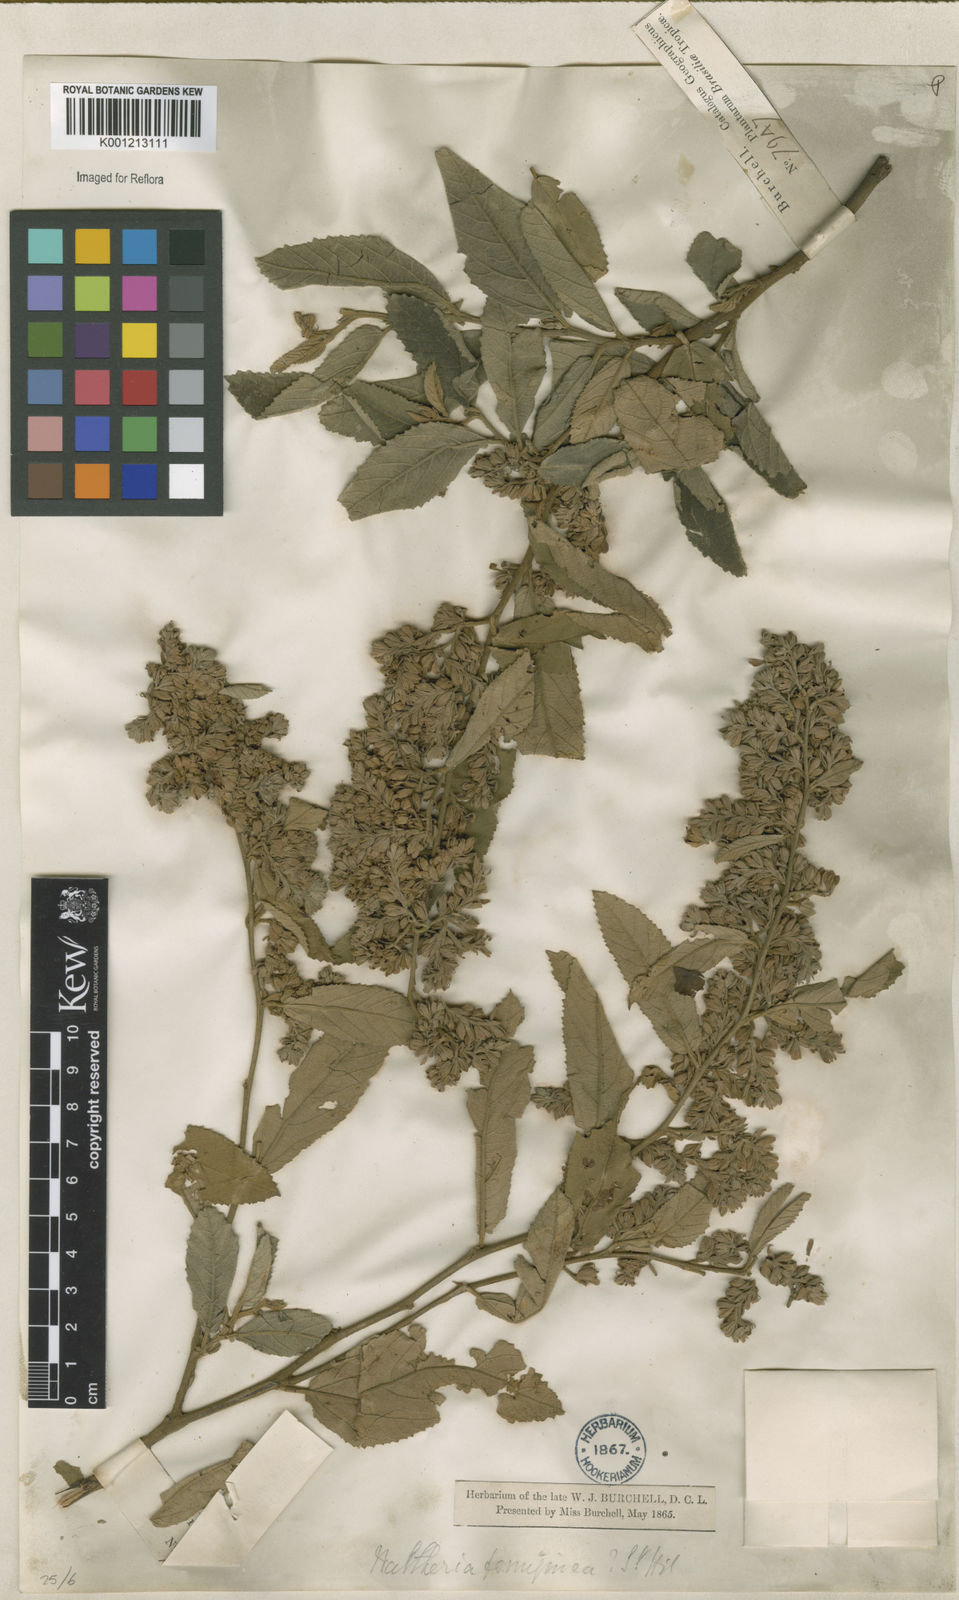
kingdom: Plantae
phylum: Tracheophyta
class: Magnoliopsida
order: Malvales
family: Malvaceae
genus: Waltheria
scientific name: Waltheria ferruginea
